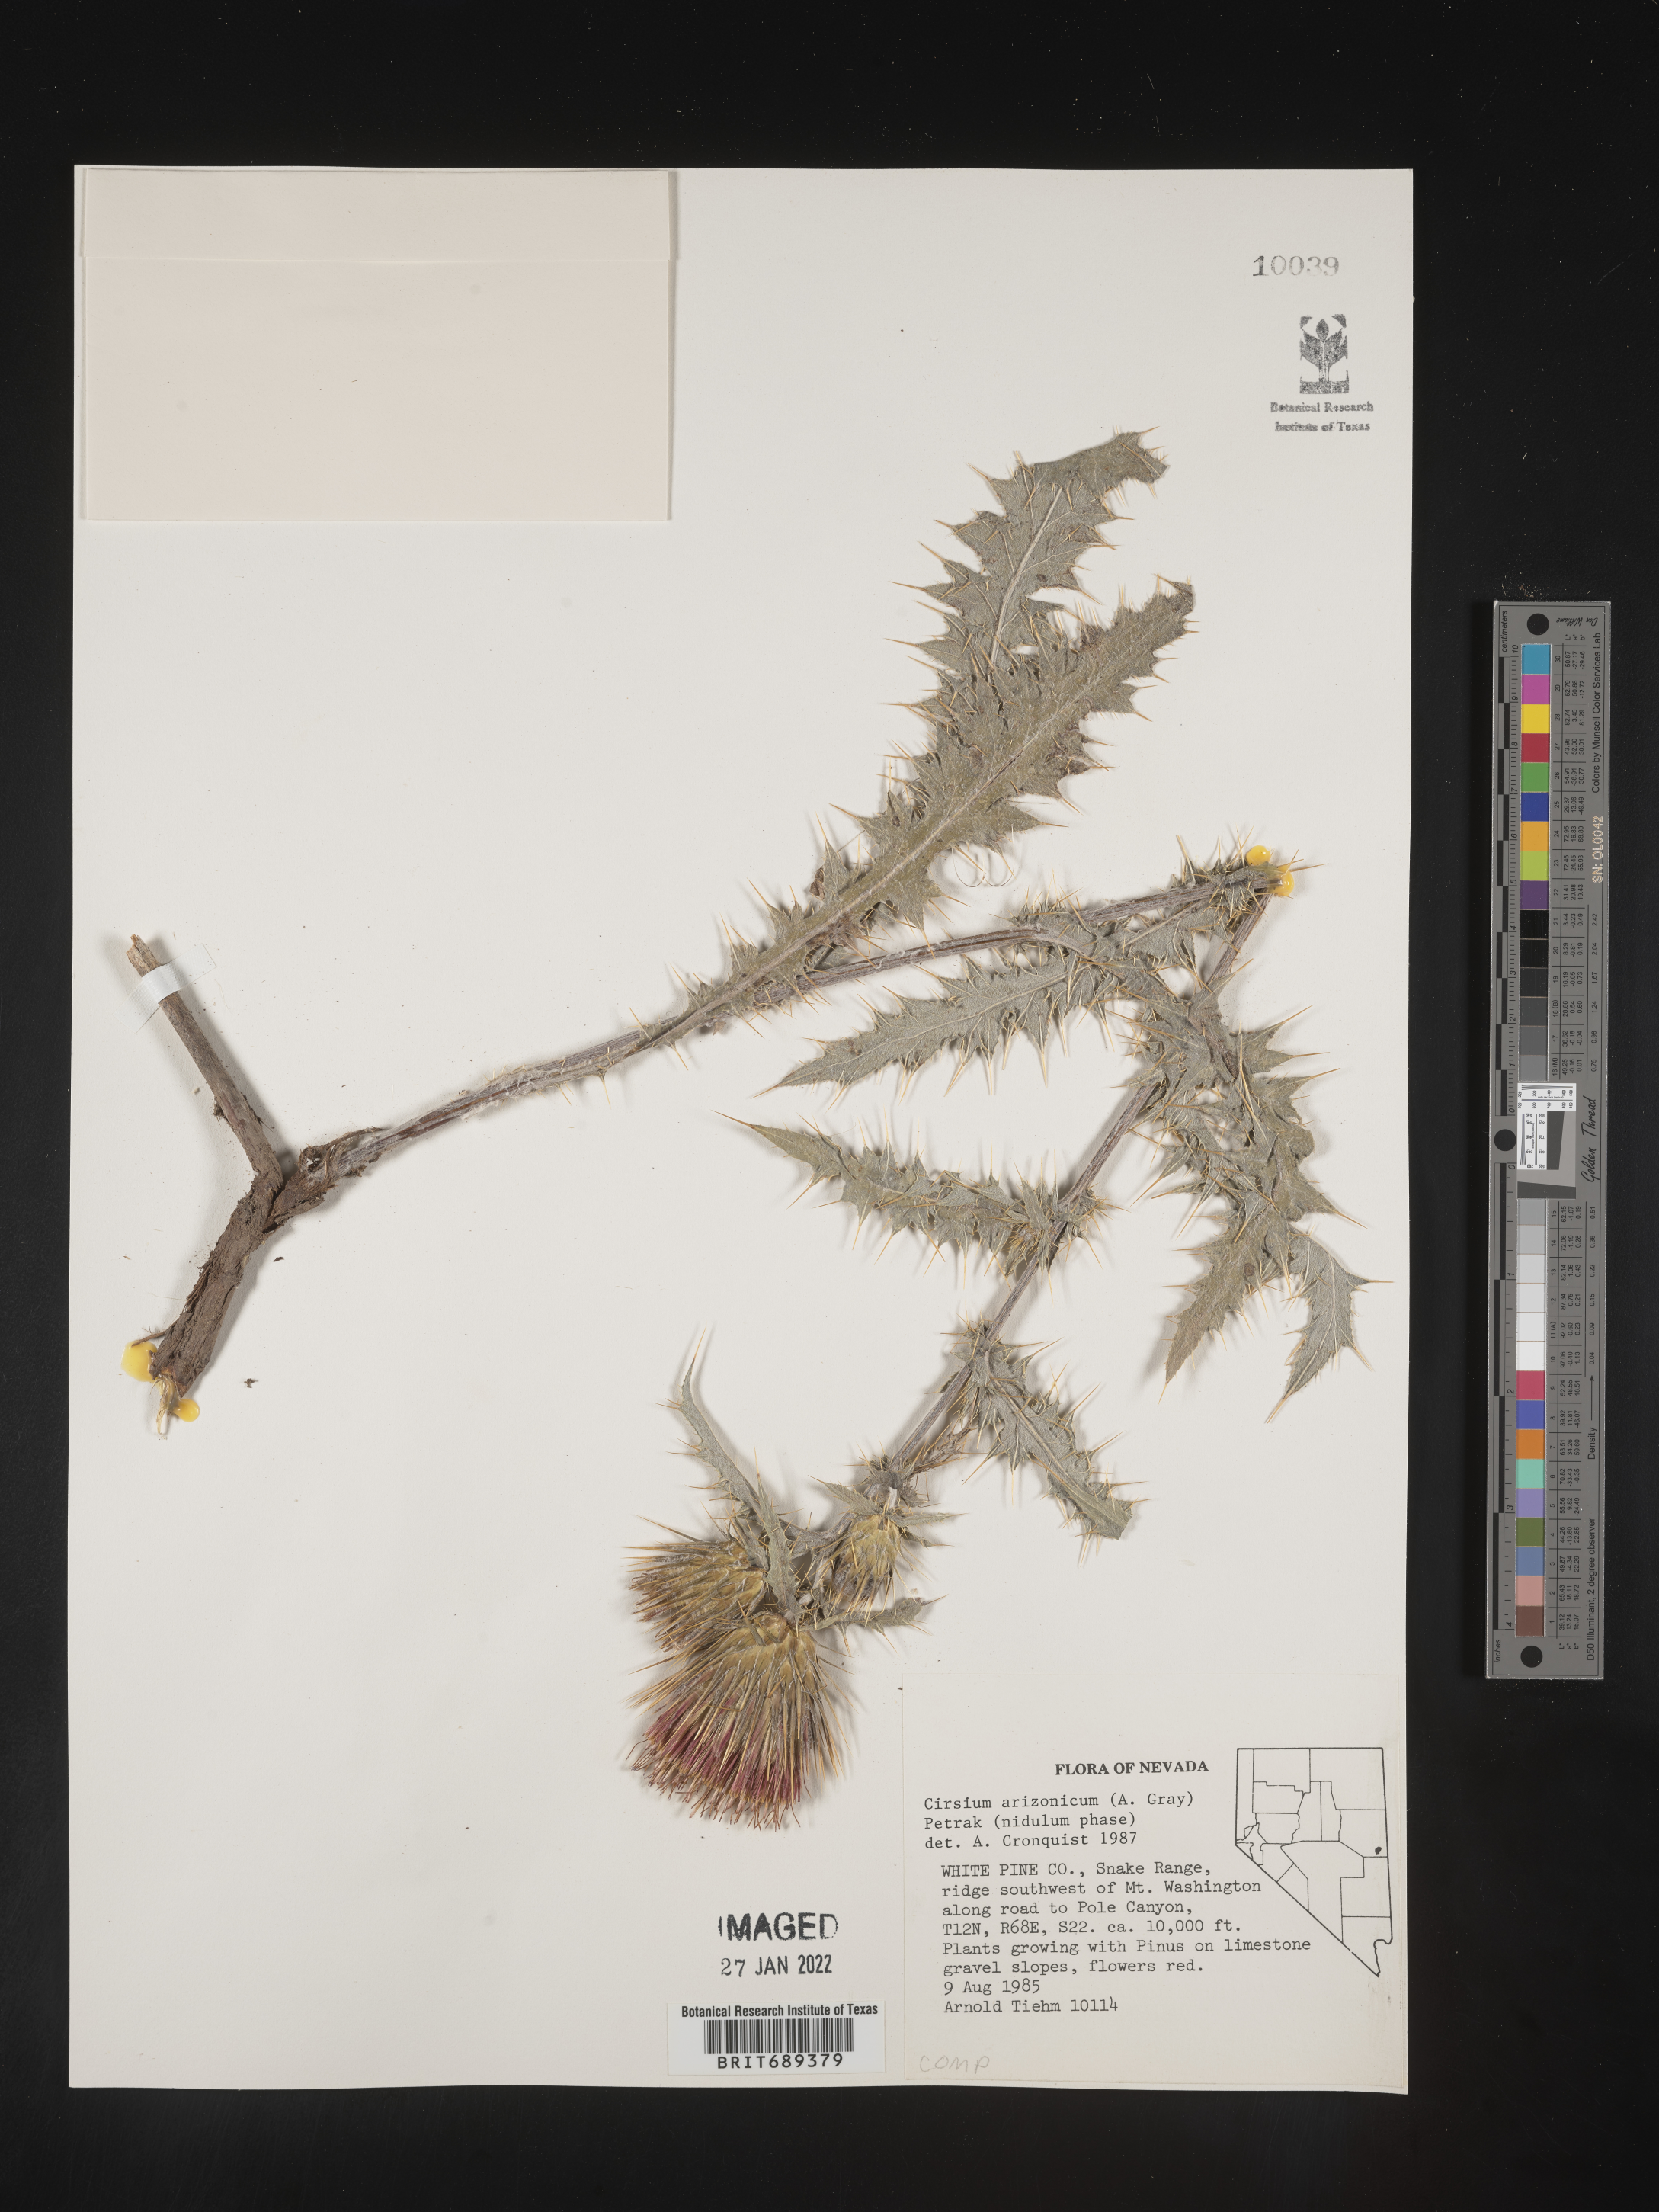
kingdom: Plantae
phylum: Tracheophyta
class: Magnoliopsida
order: Asterales
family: Asteraceae
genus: Cirsium
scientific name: Cirsium arizonicum
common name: Arizona thistle
